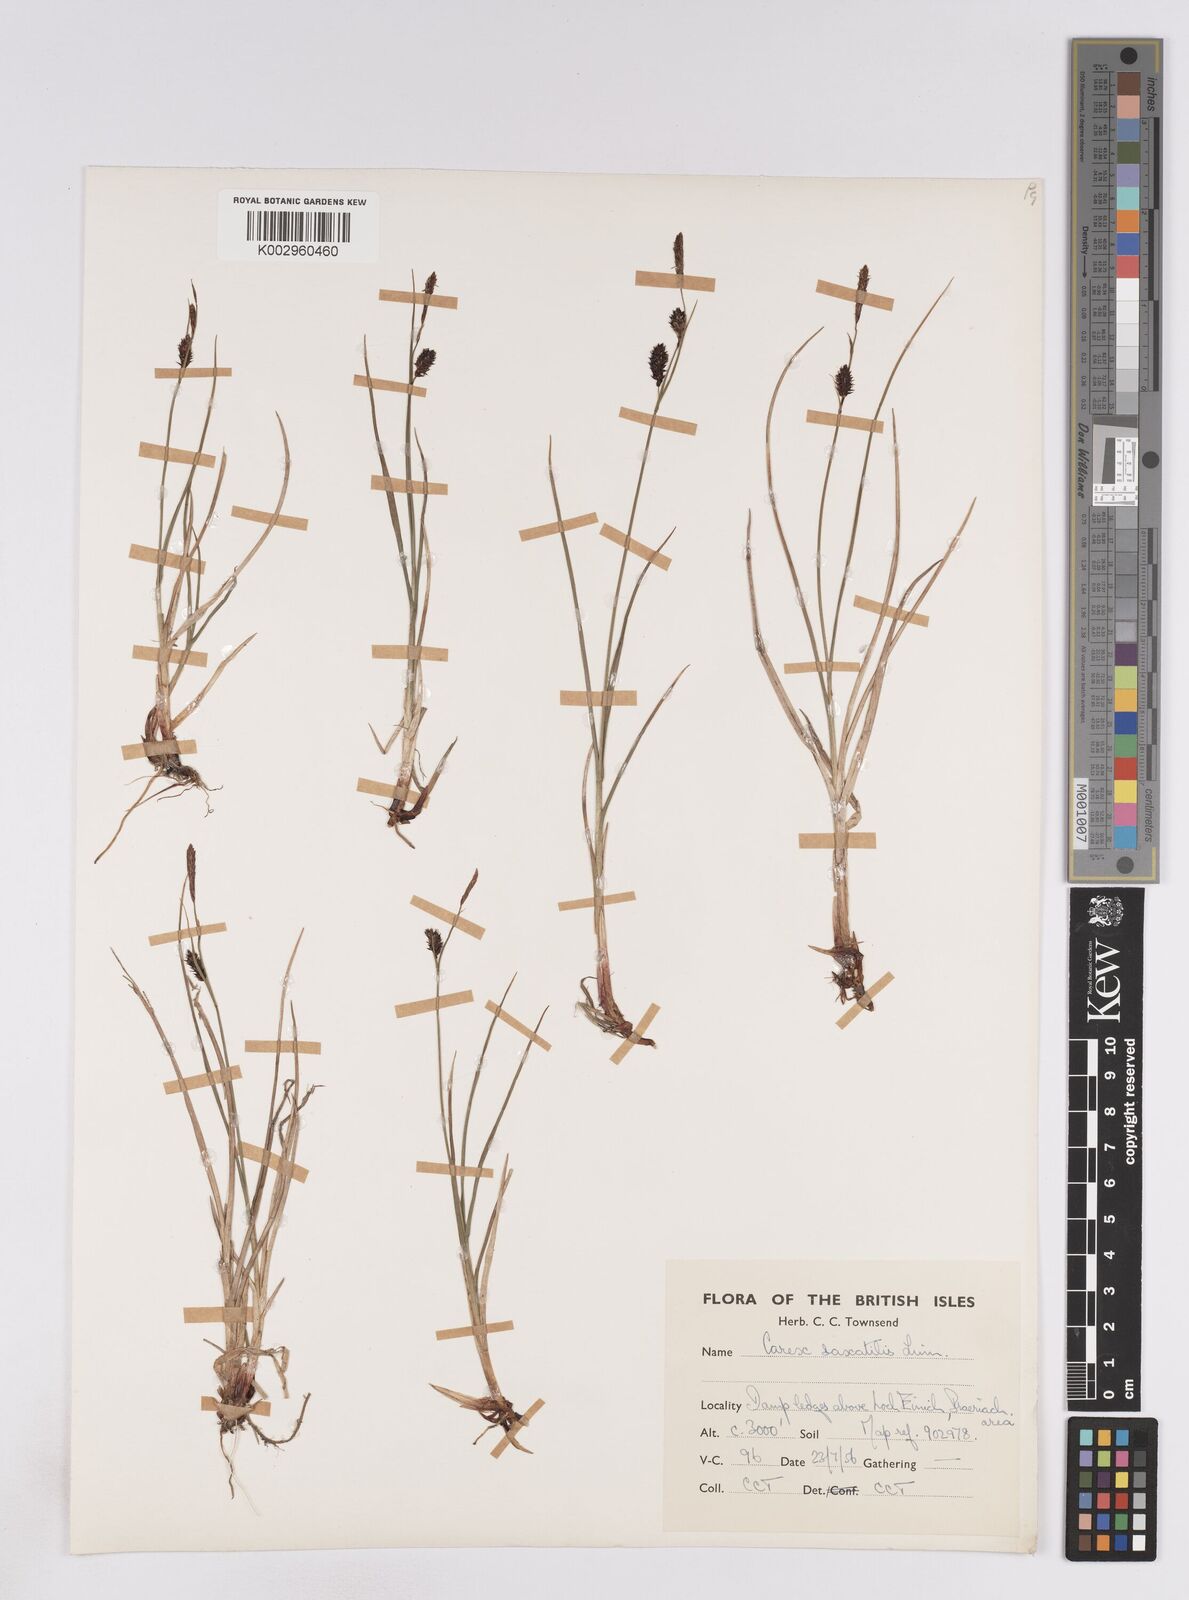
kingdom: Plantae
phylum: Tracheophyta
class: Liliopsida
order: Poales
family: Cyperaceae
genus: Carex
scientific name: Carex saxatilis
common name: Russet sedge
